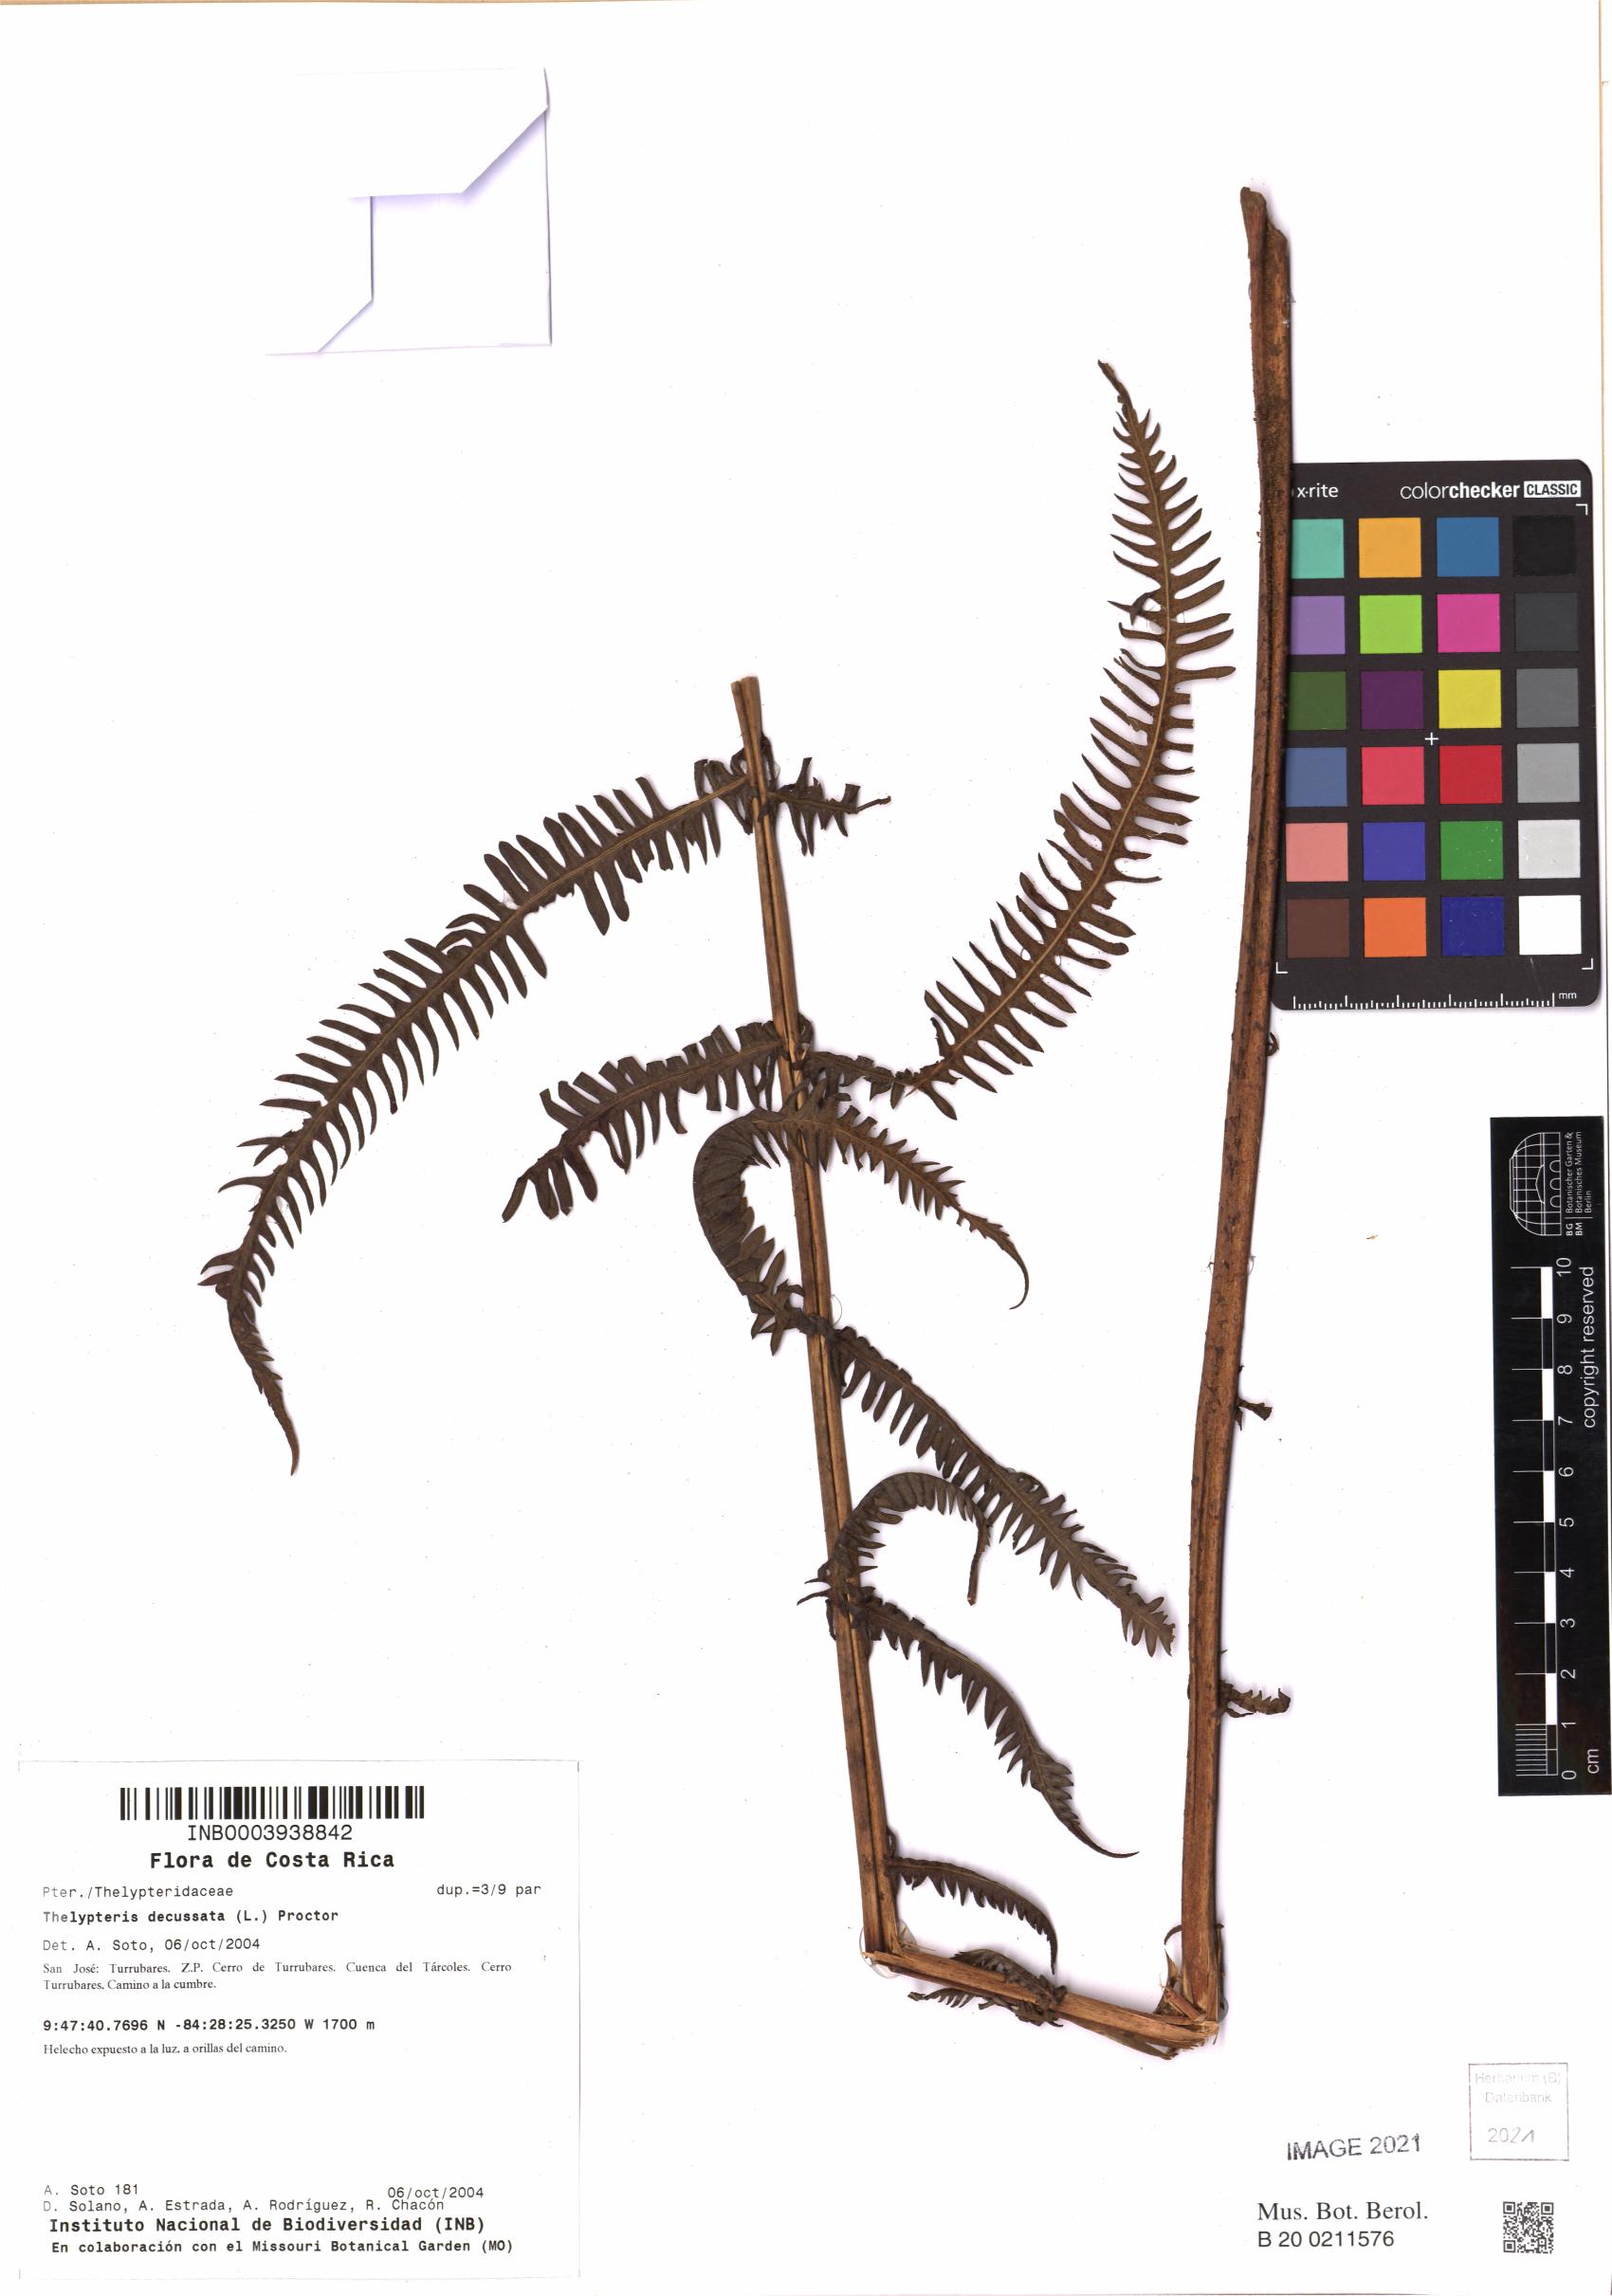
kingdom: Plantae
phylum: Tracheophyta
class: Polypodiopsida
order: Polypodiales
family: Thelypteridaceae
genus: Steiropteris
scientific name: Steiropteris decussata
